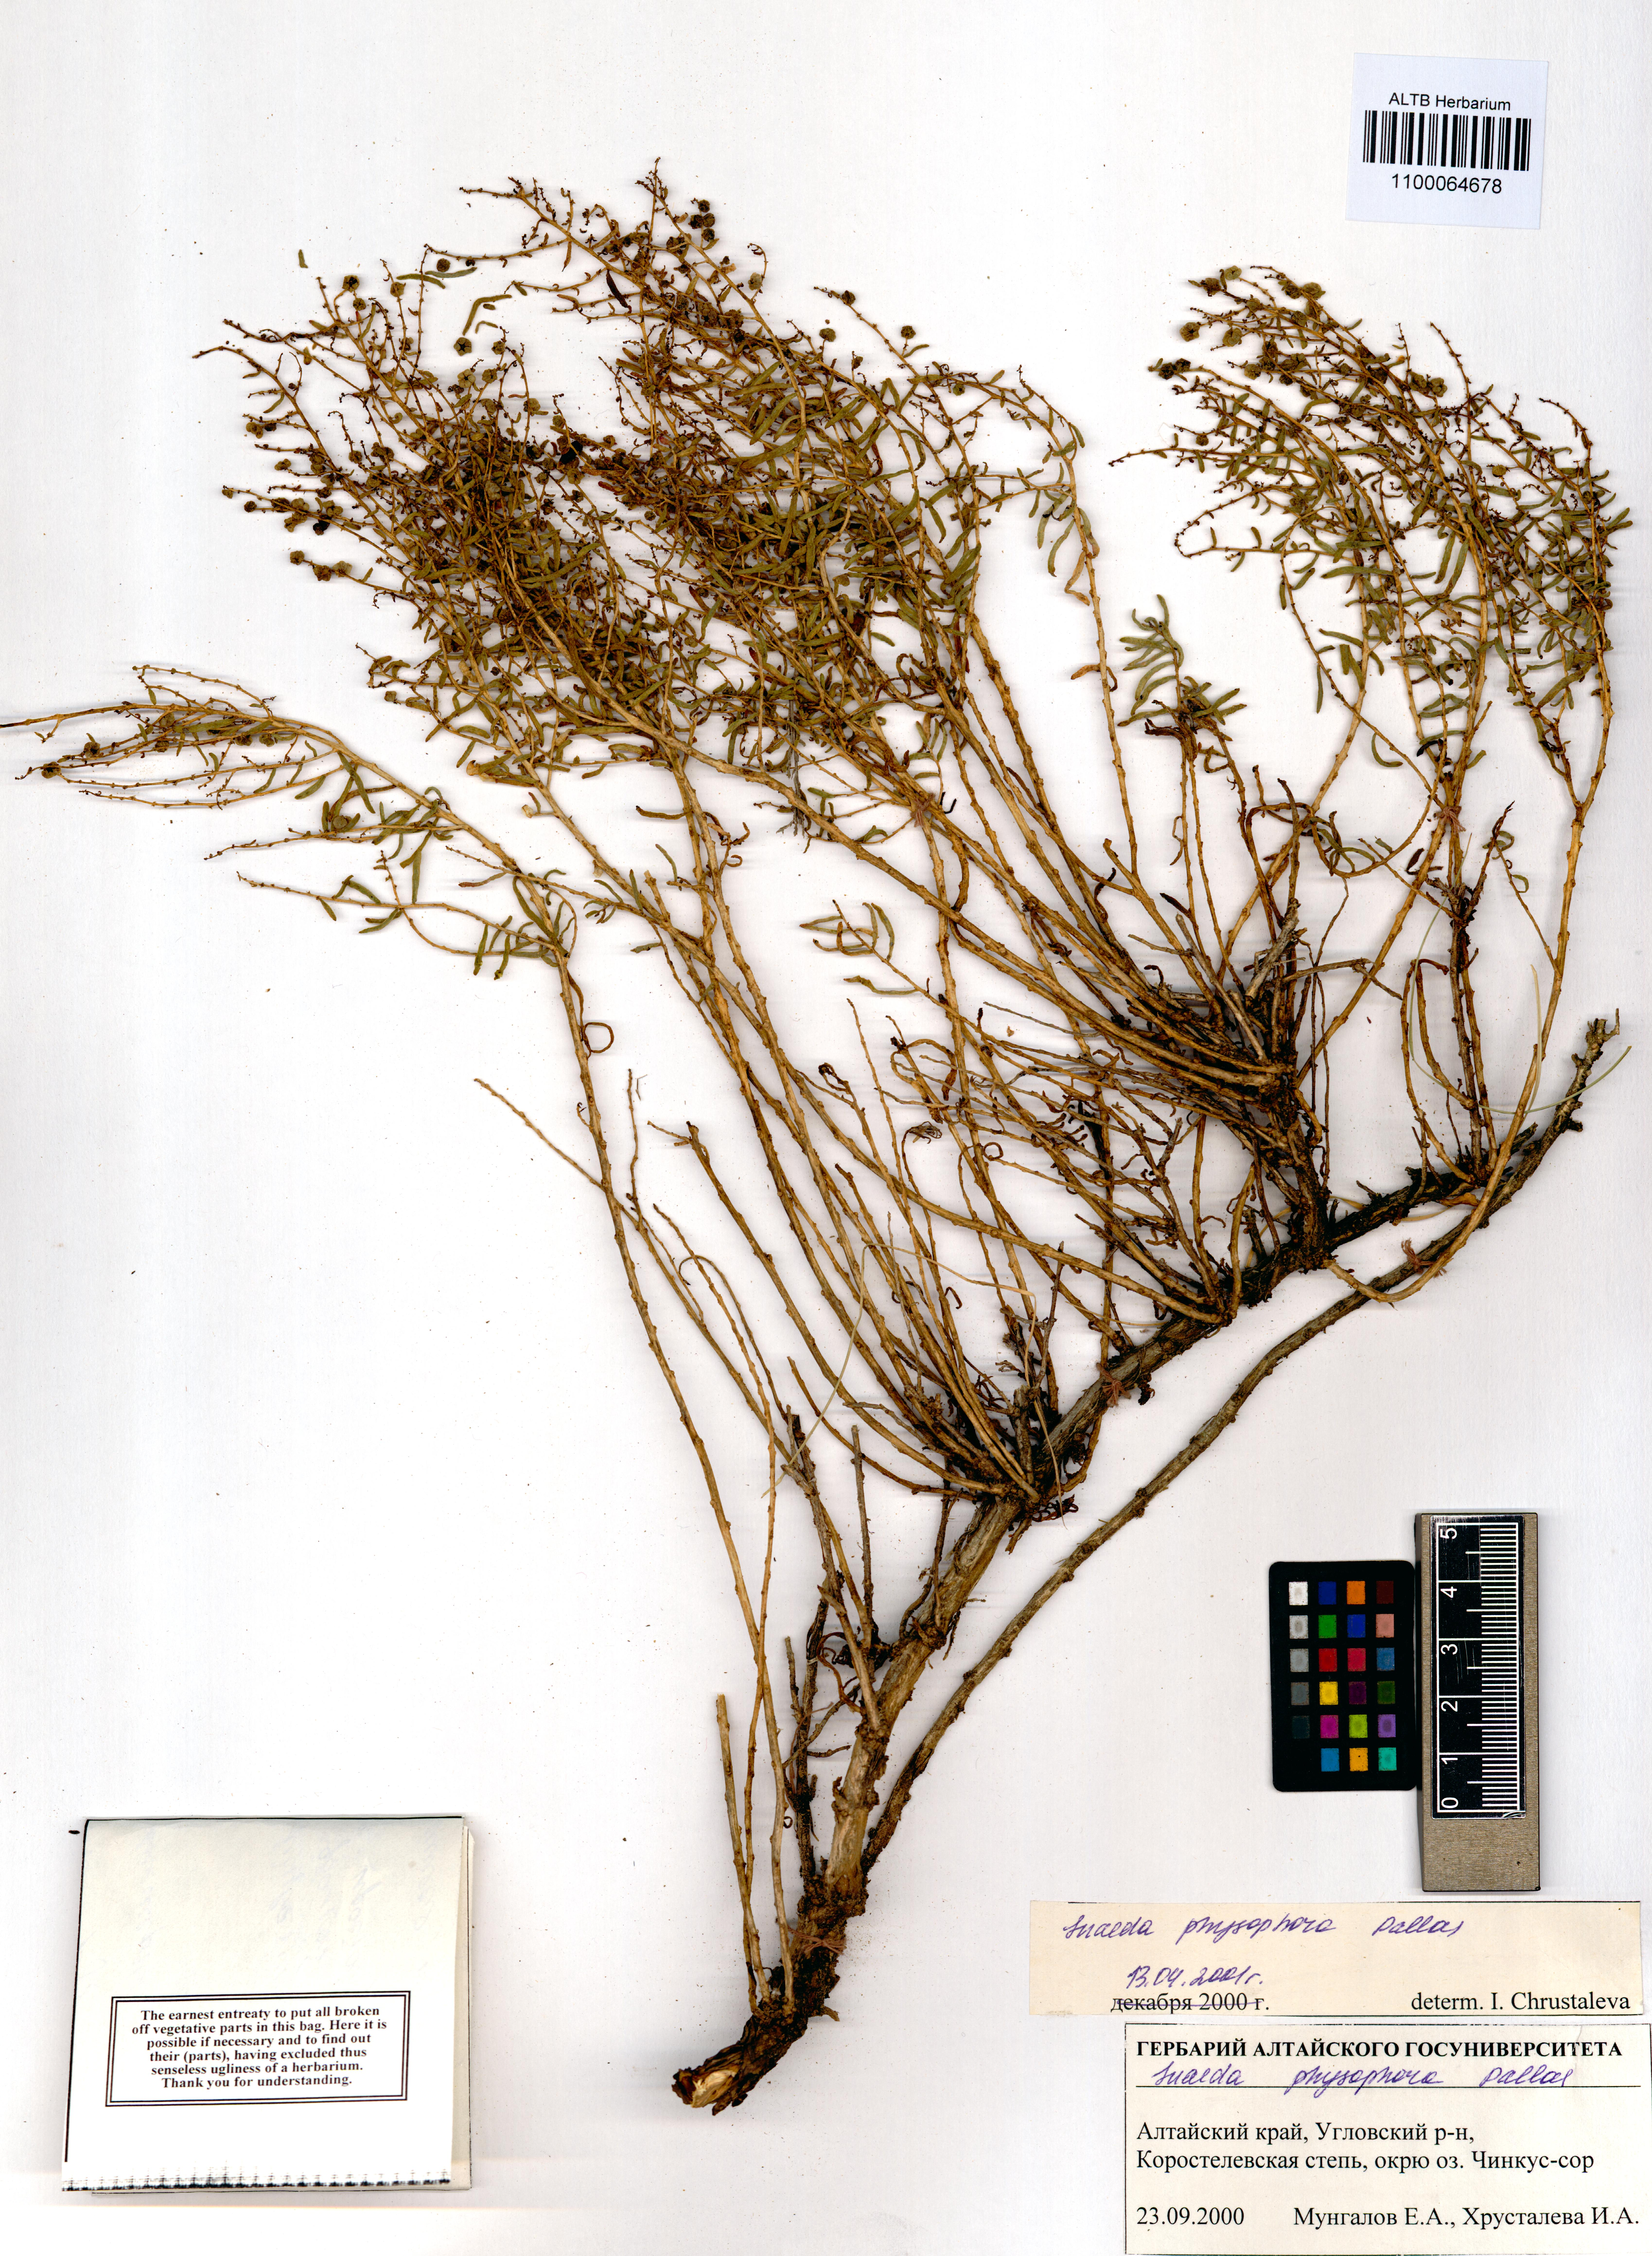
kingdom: Plantae
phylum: Tracheophyta
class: Magnoliopsida
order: Caryophyllales
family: Amaranthaceae
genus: Suaeda
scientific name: Suaeda physophora
